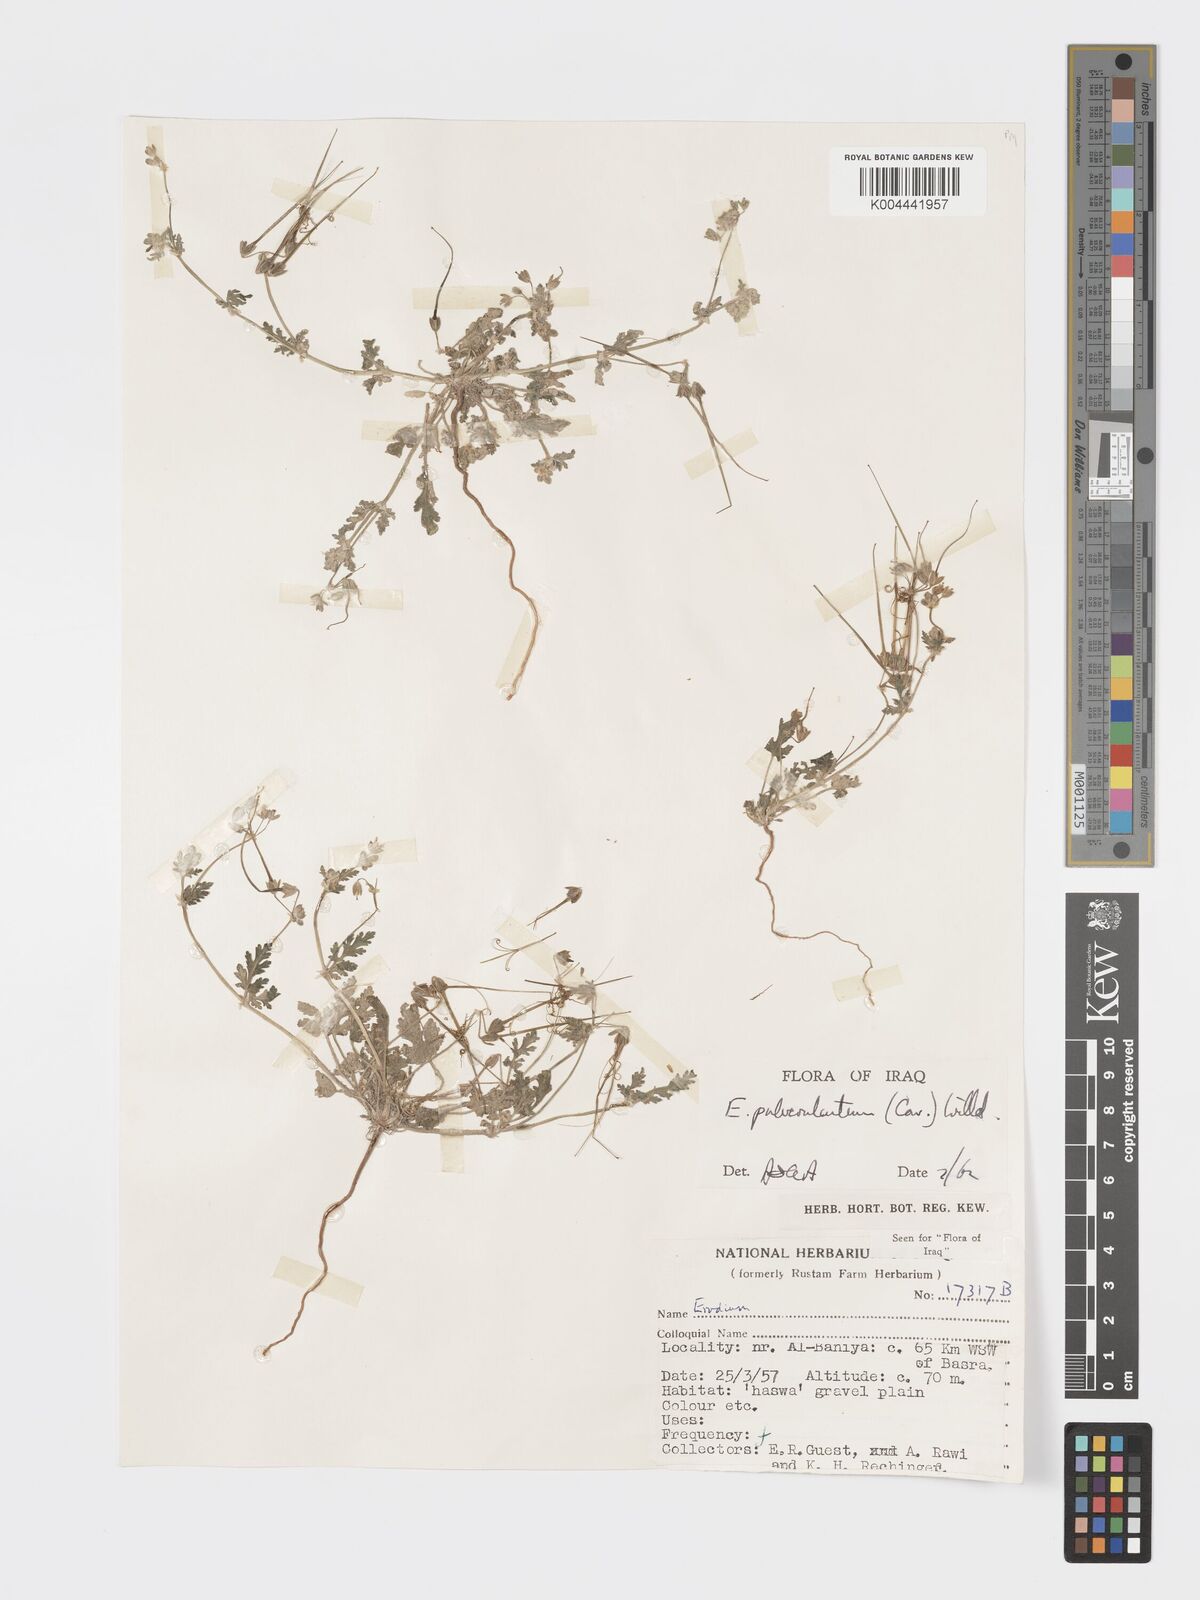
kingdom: Plantae
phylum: Tracheophyta
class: Magnoliopsida
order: Geraniales
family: Geraniaceae
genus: Erodium
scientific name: Erodium laciniatum
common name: Cutleaf stork's bill
